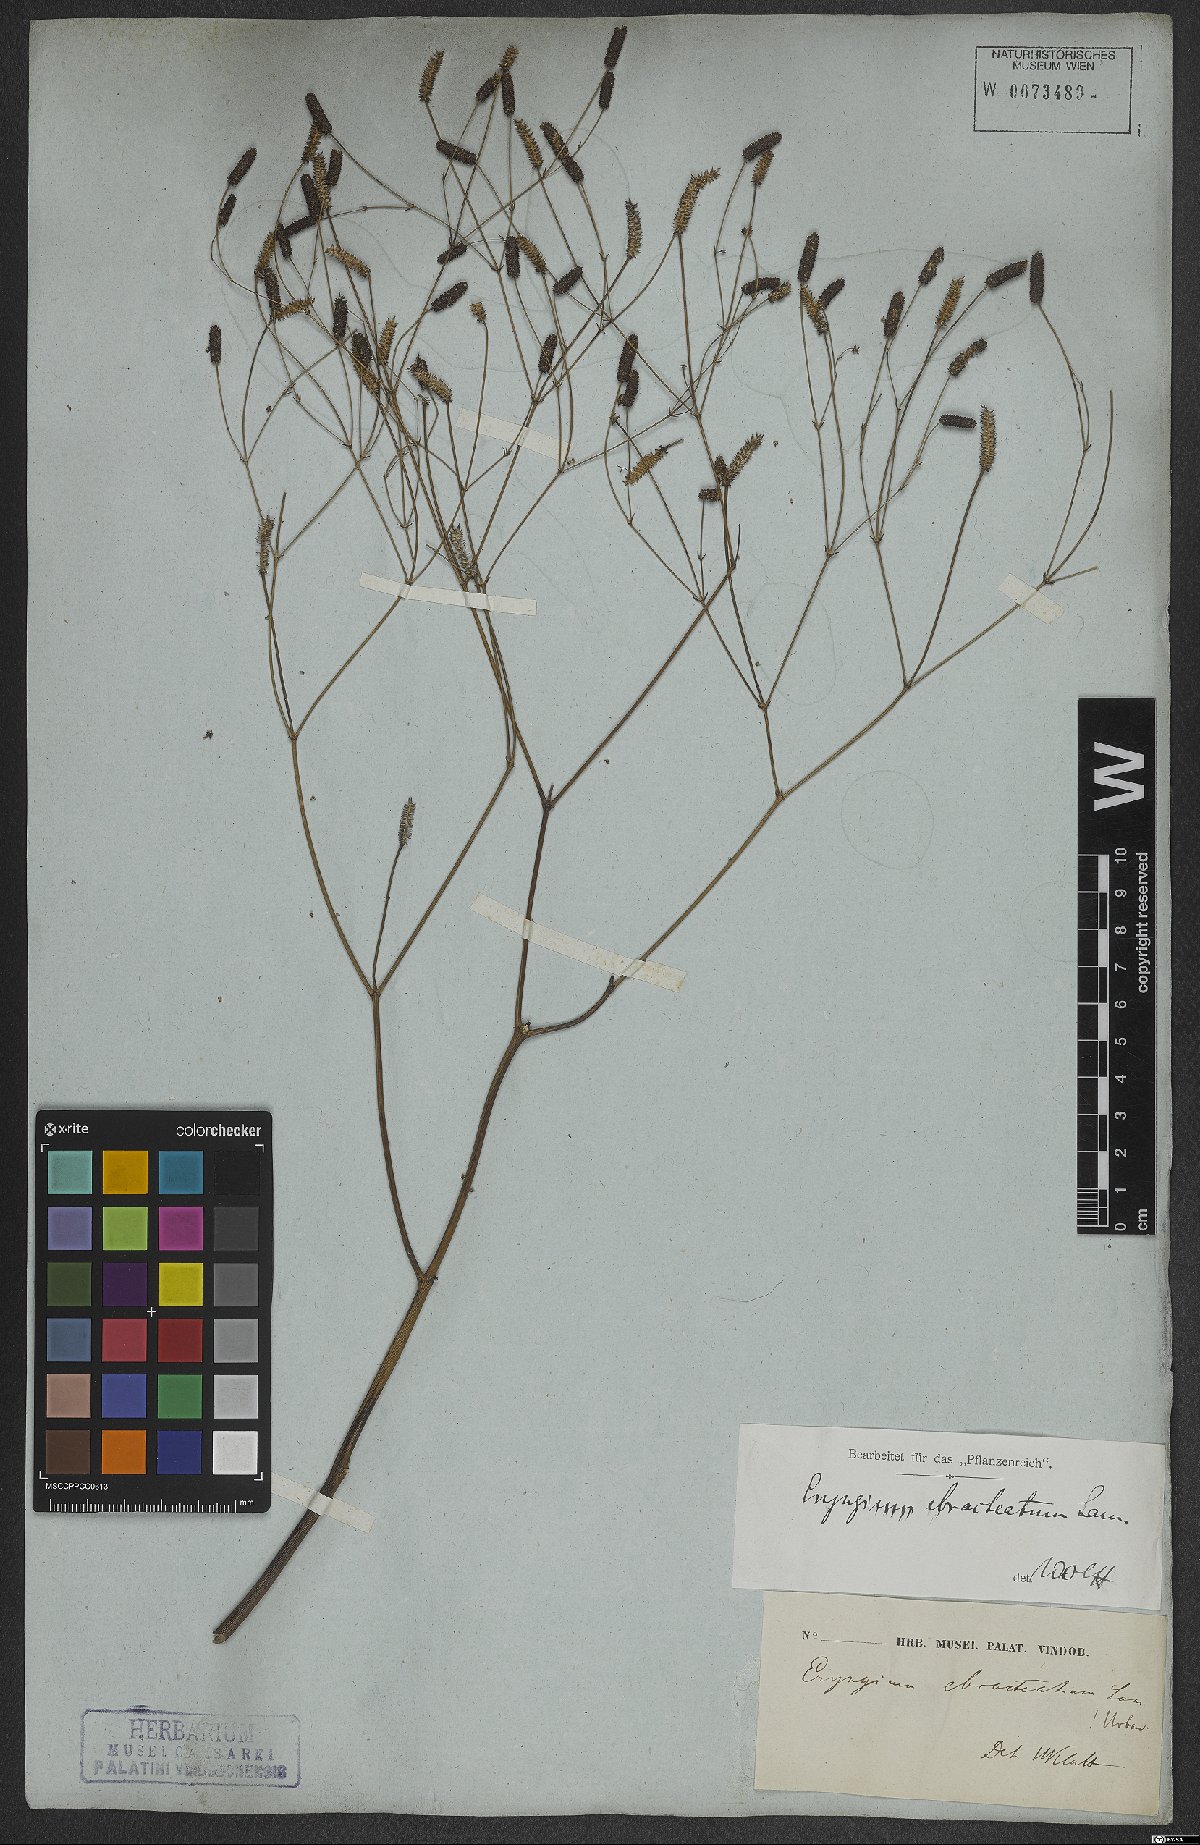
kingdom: Plantae
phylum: Tracheophyta
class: Magnoliopsida
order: Apiales
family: Apiaceae
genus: Eryngium
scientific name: Eryngium ebracteatum
